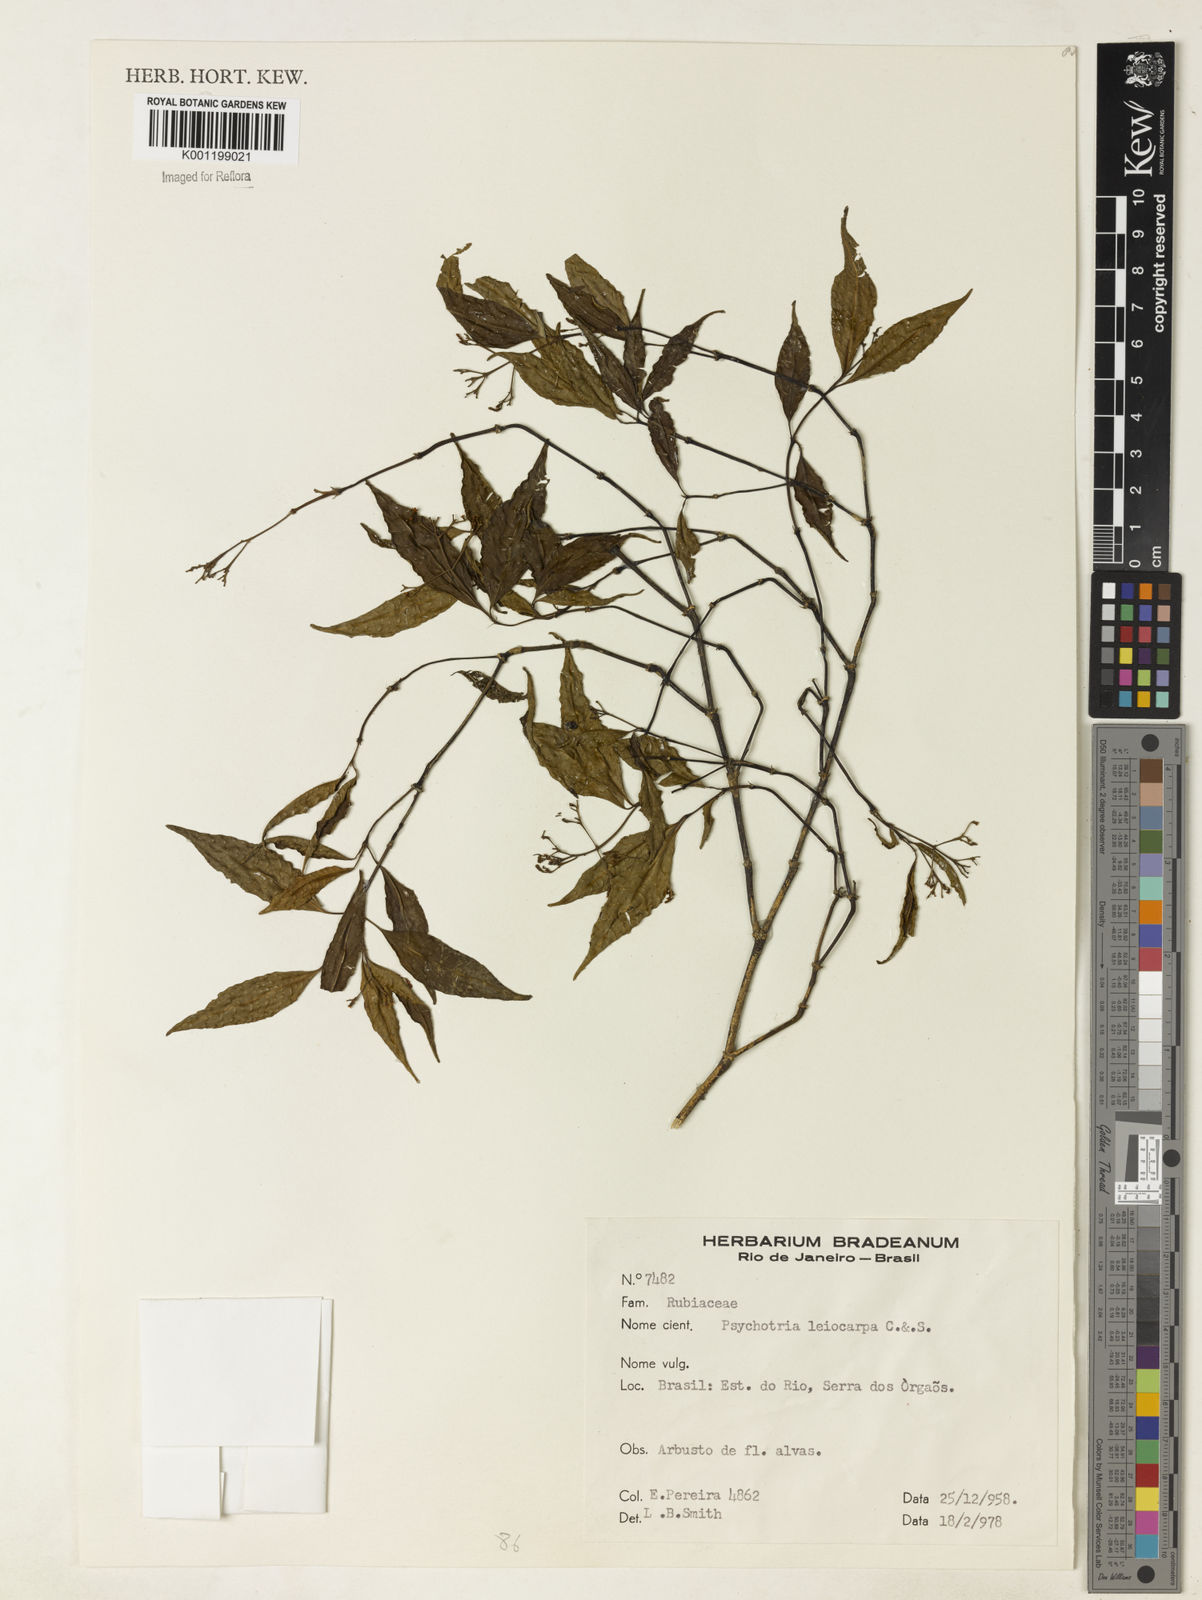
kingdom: Plantae
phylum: Tracheophyta
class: Magnoliopsida
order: Gentianales
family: Rubiaceae
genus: Psychotria
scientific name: Psychotria leiocarpa
